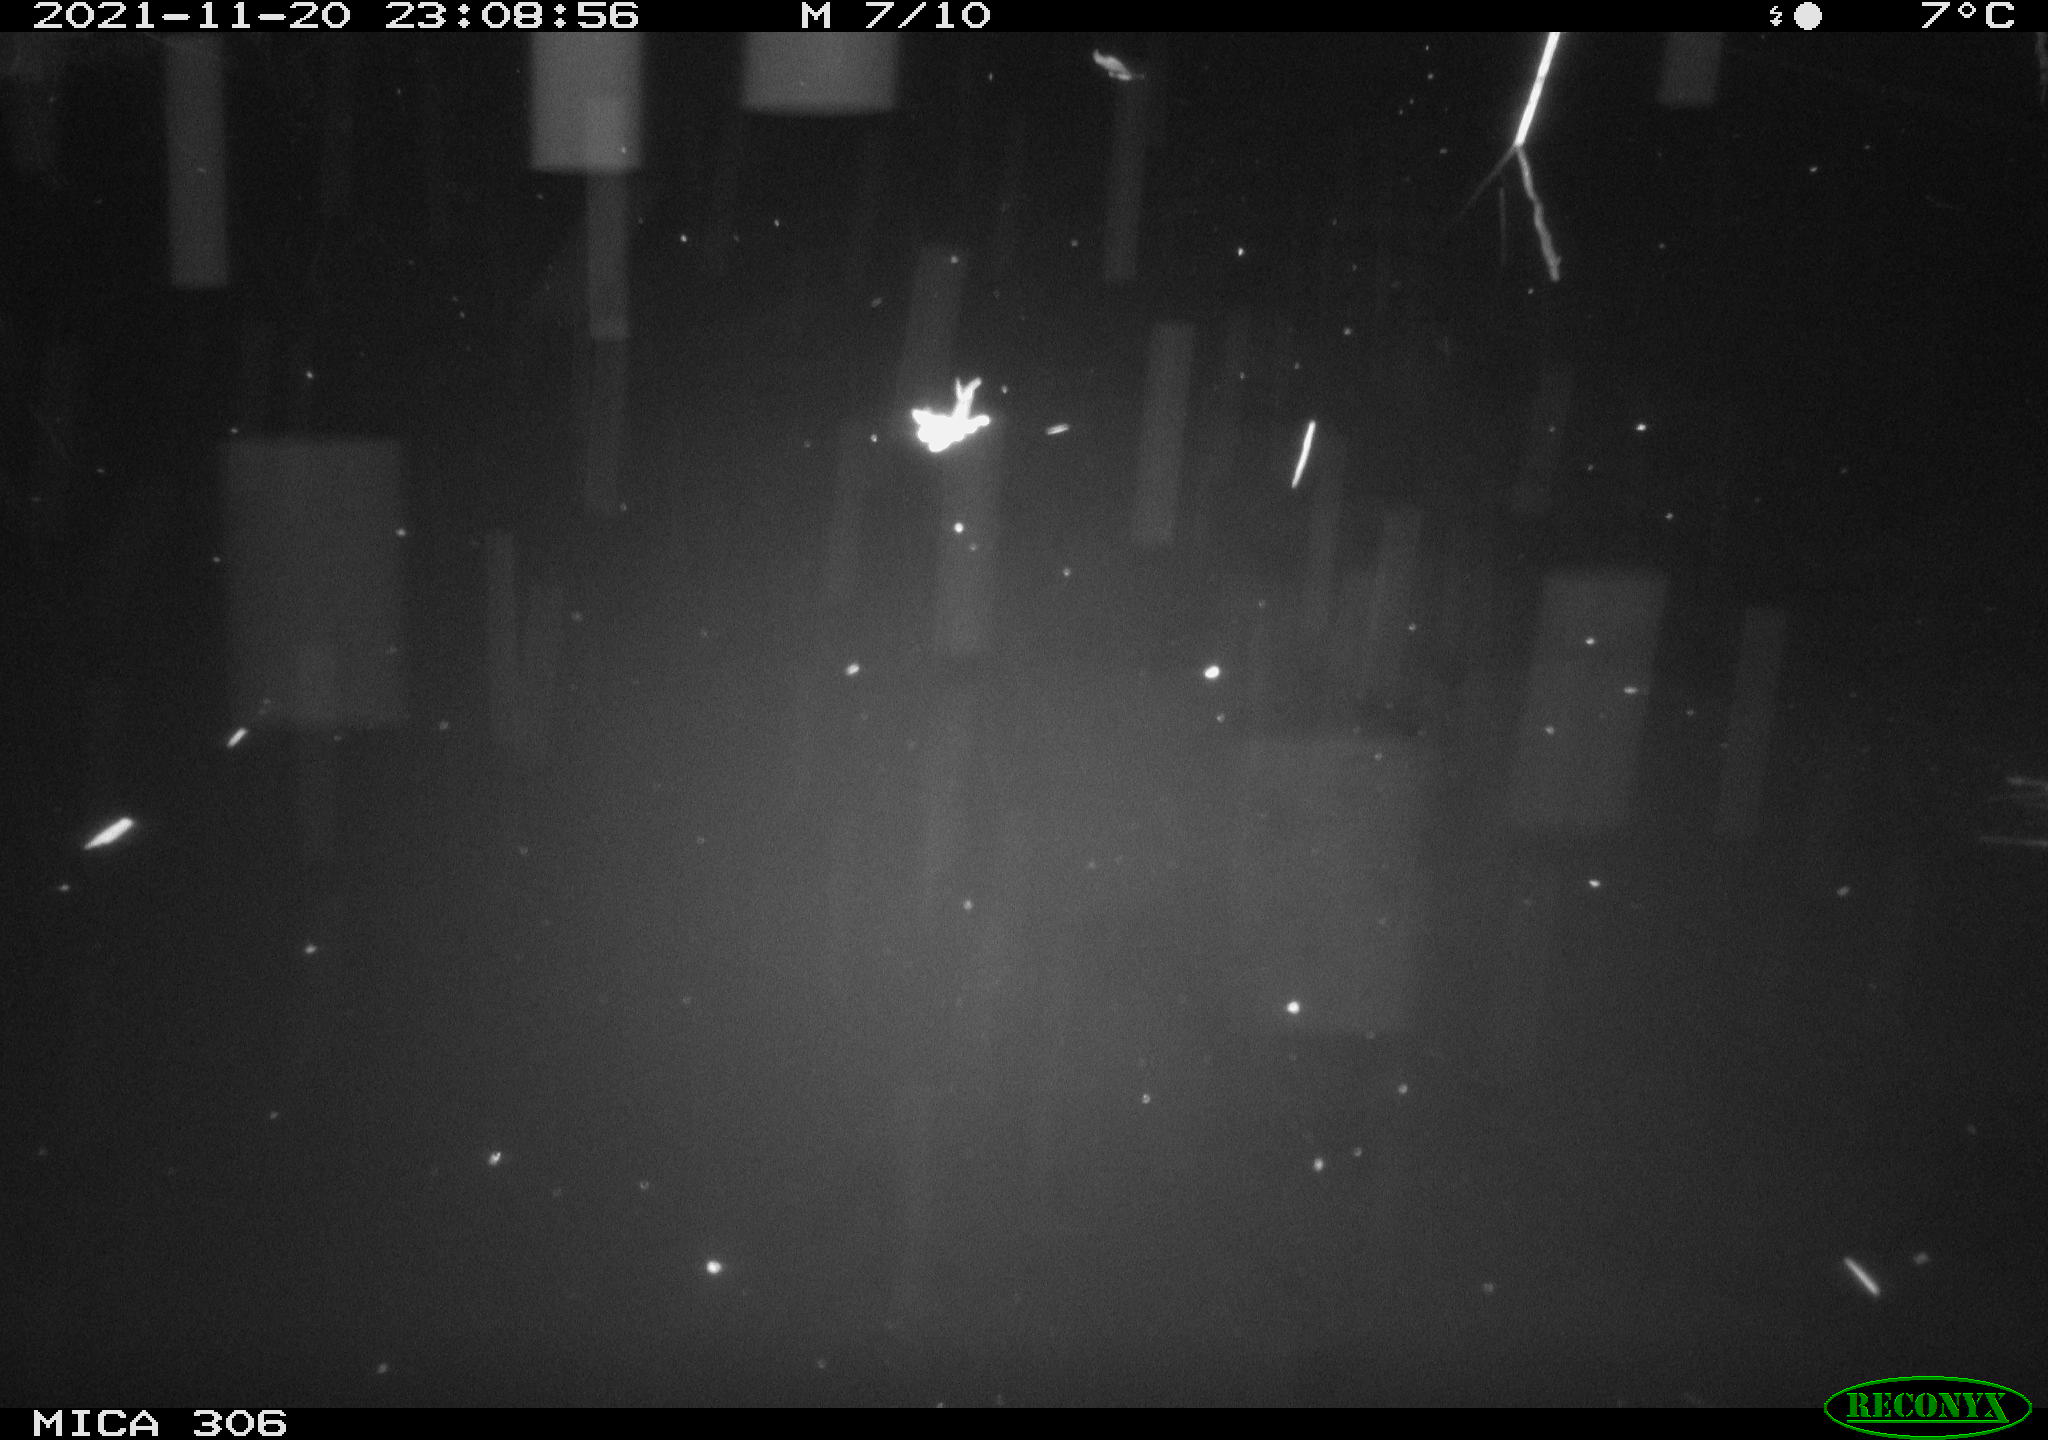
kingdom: Animalia
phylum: Chordata
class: Mammalia
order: Rodentia
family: Muridae
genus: Rattus
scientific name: Rattus norvegicus
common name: Brown rat
